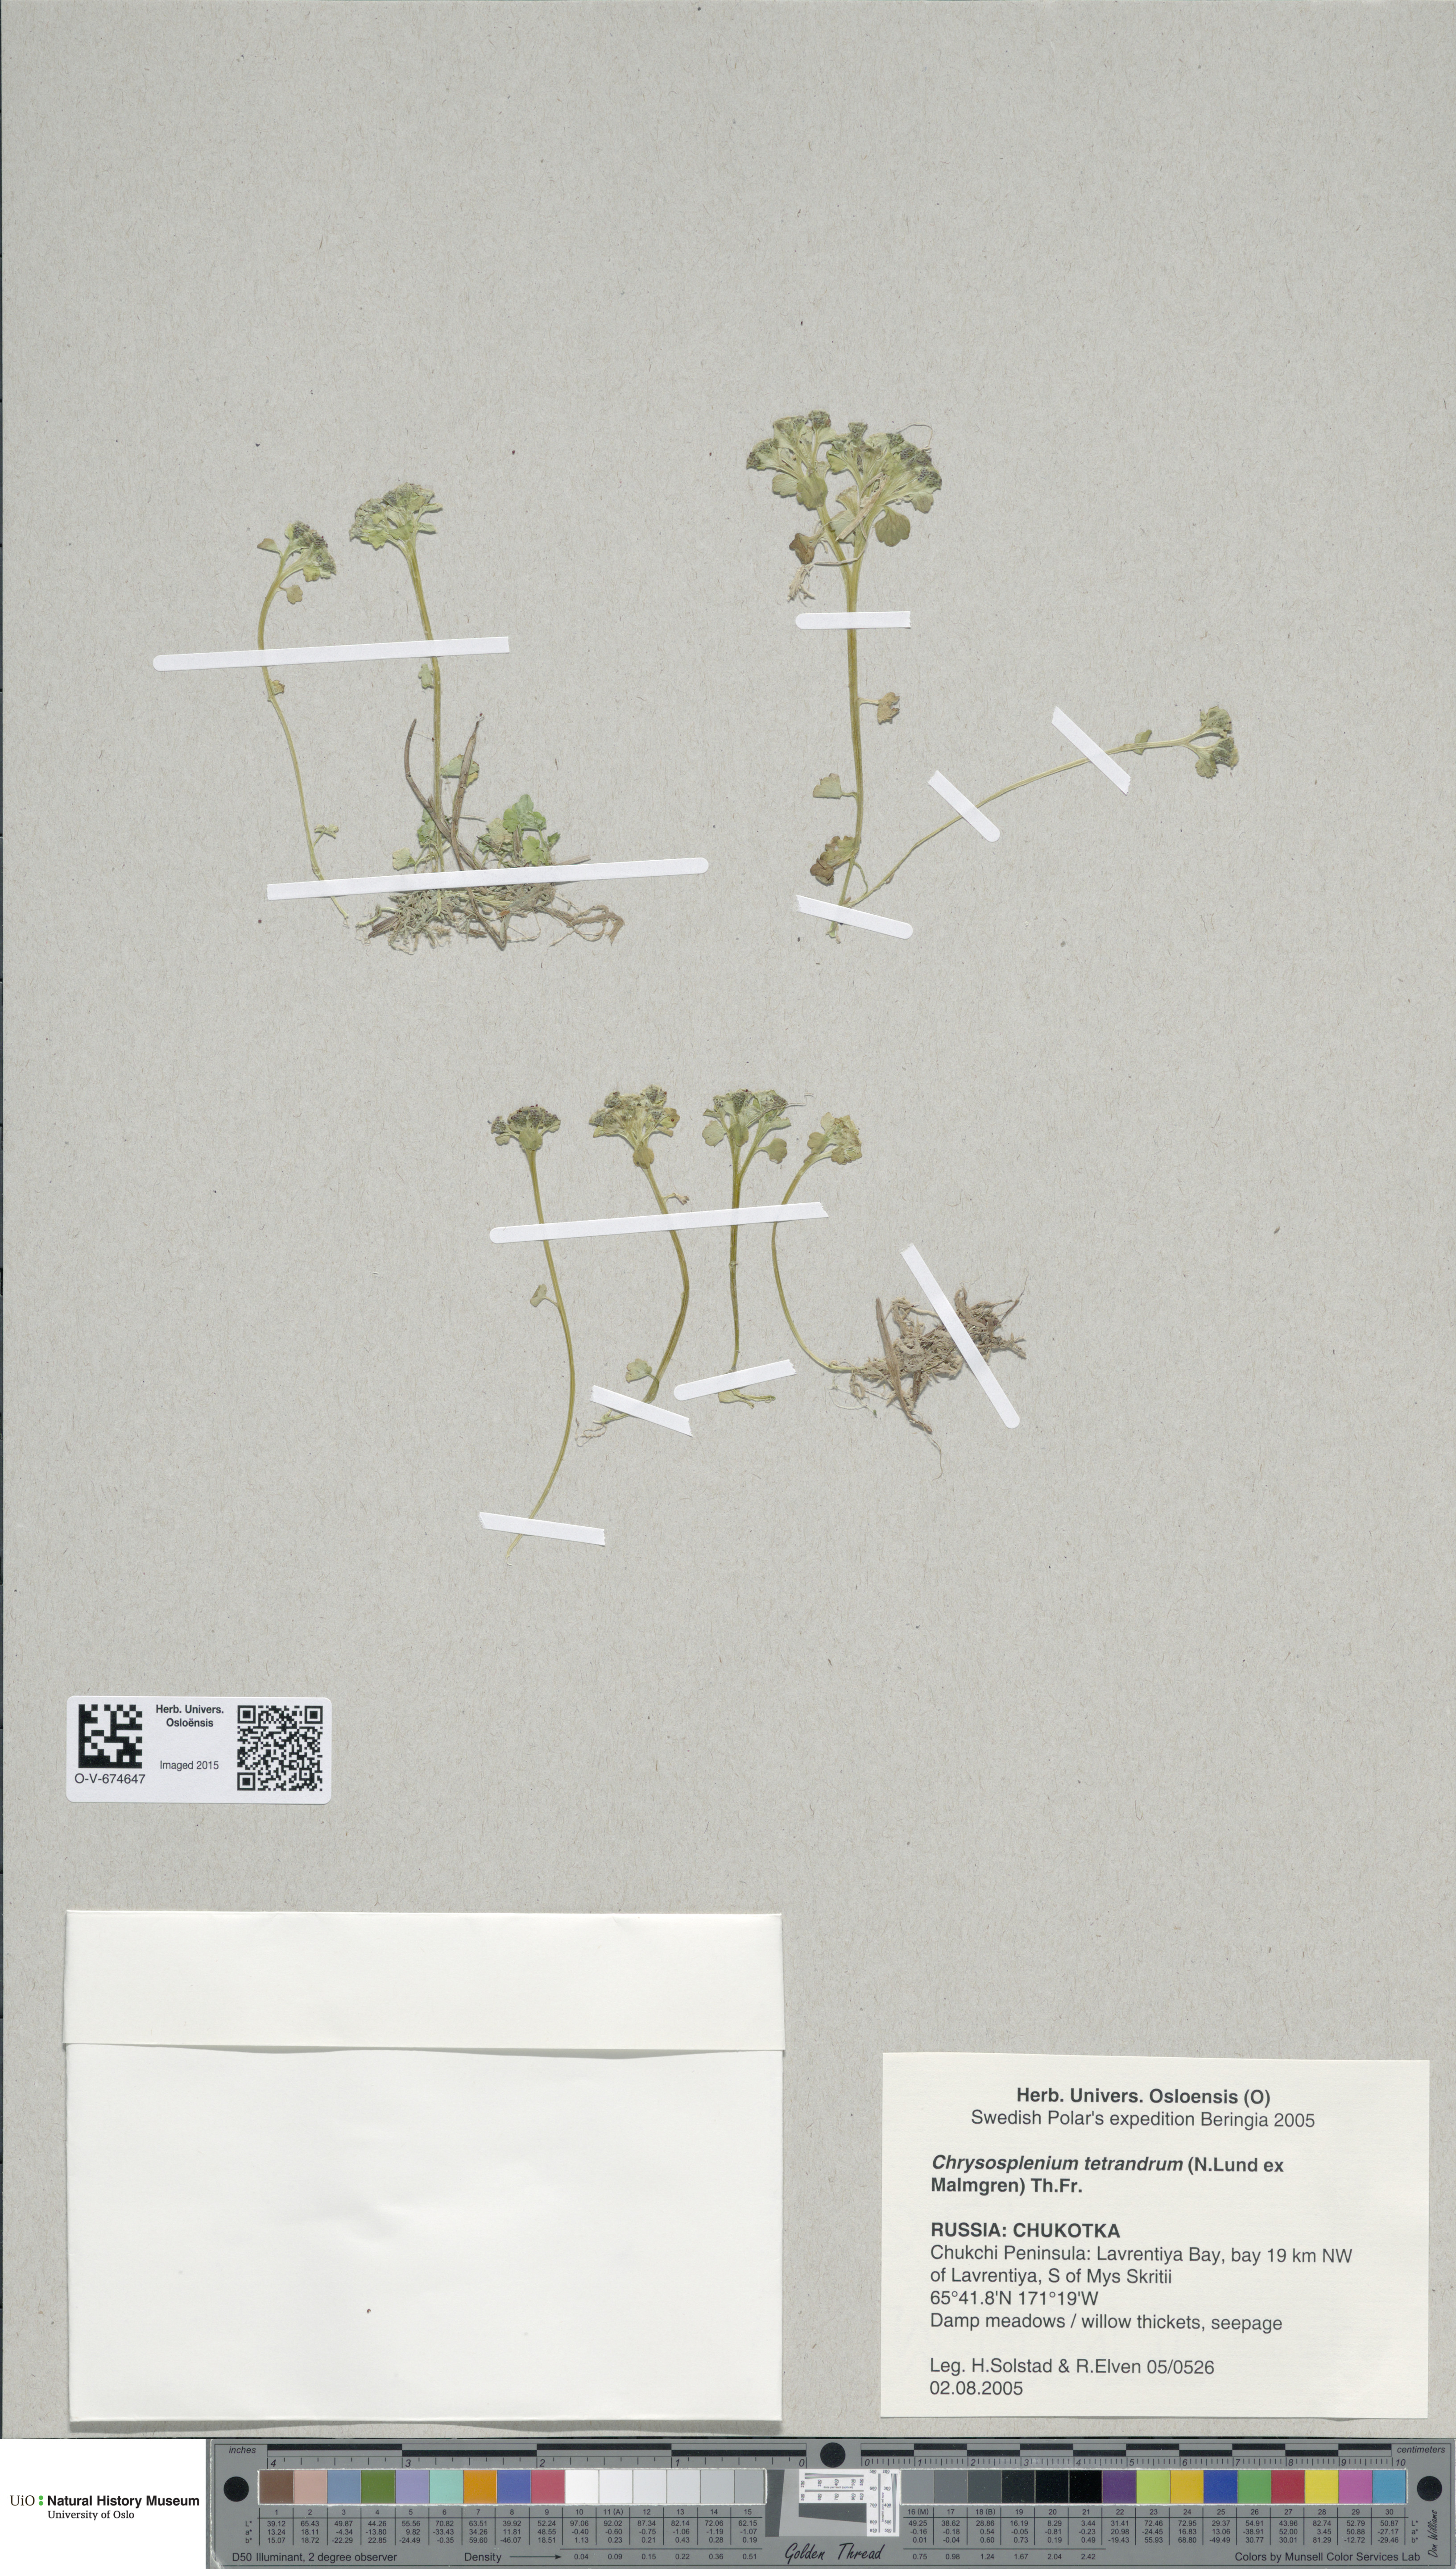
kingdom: Plantae
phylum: Tracheophyta
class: Magnoliopsida
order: Saxifragales
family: Saxifragaceae
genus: Chrysosplenium
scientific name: Chrysosplenium tetrandrum
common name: Green saxifrage
